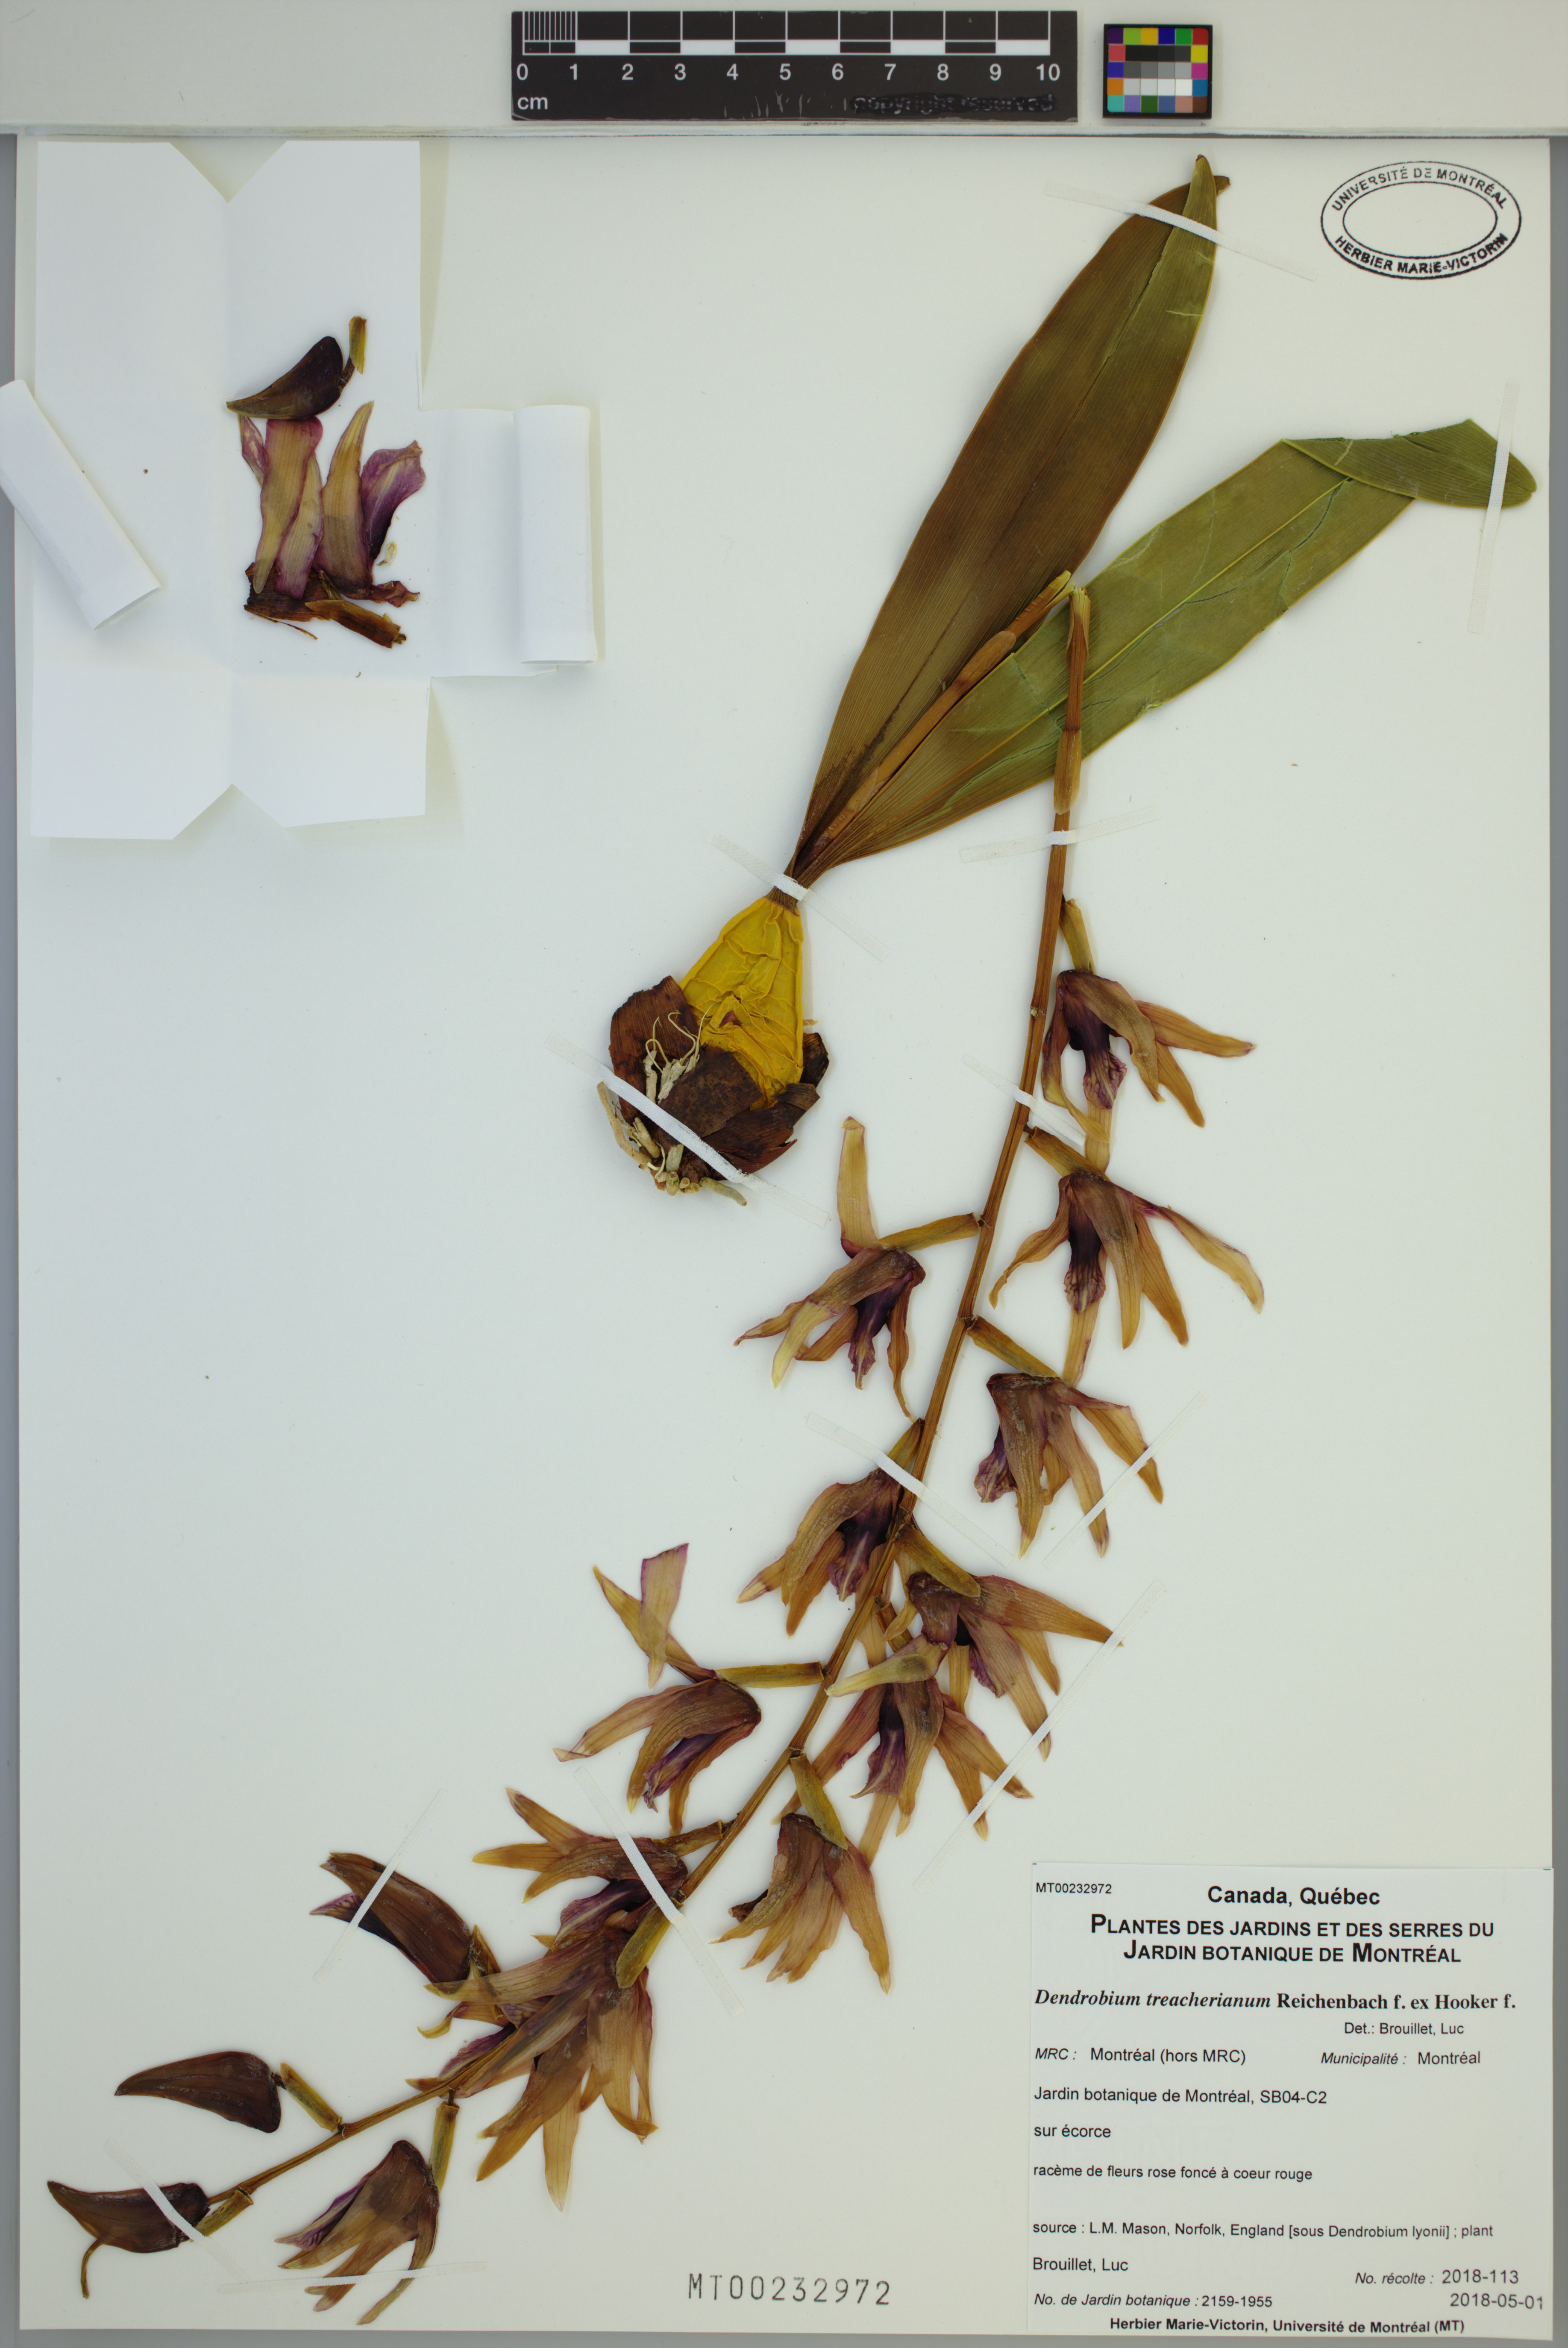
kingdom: Plantae
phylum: Tracheophyta
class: Liliopsida
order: Asparagales
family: Orchidaceae
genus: Dendrobium
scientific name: Dendrobium treacherianum
